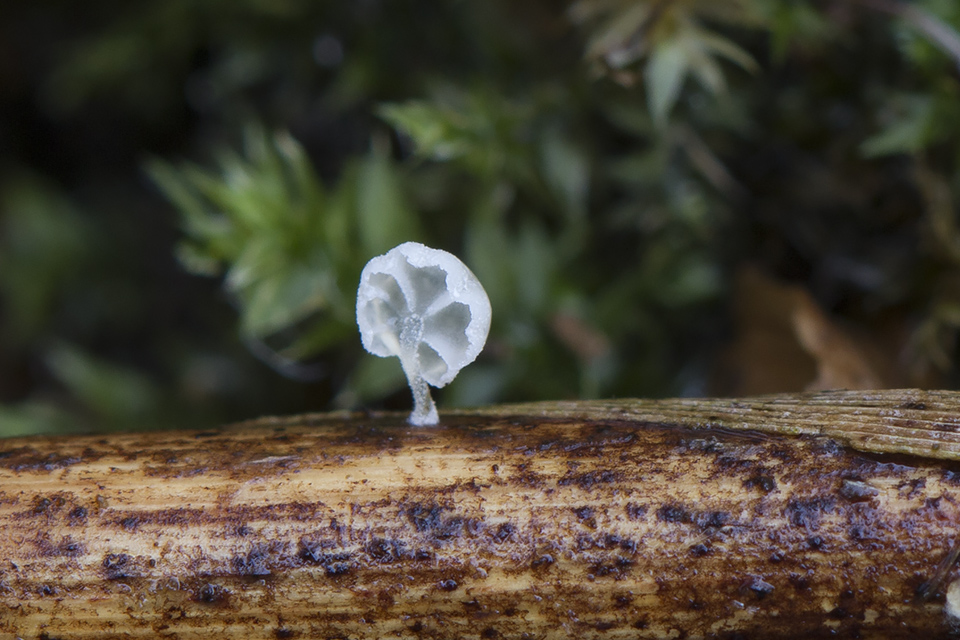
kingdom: Fungi
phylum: Basidiomycota
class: Agaricomycetes
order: Agaricales
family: Mycenaceae
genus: Resinomycena
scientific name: Resinomycena saccharifera
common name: sukkerhat
